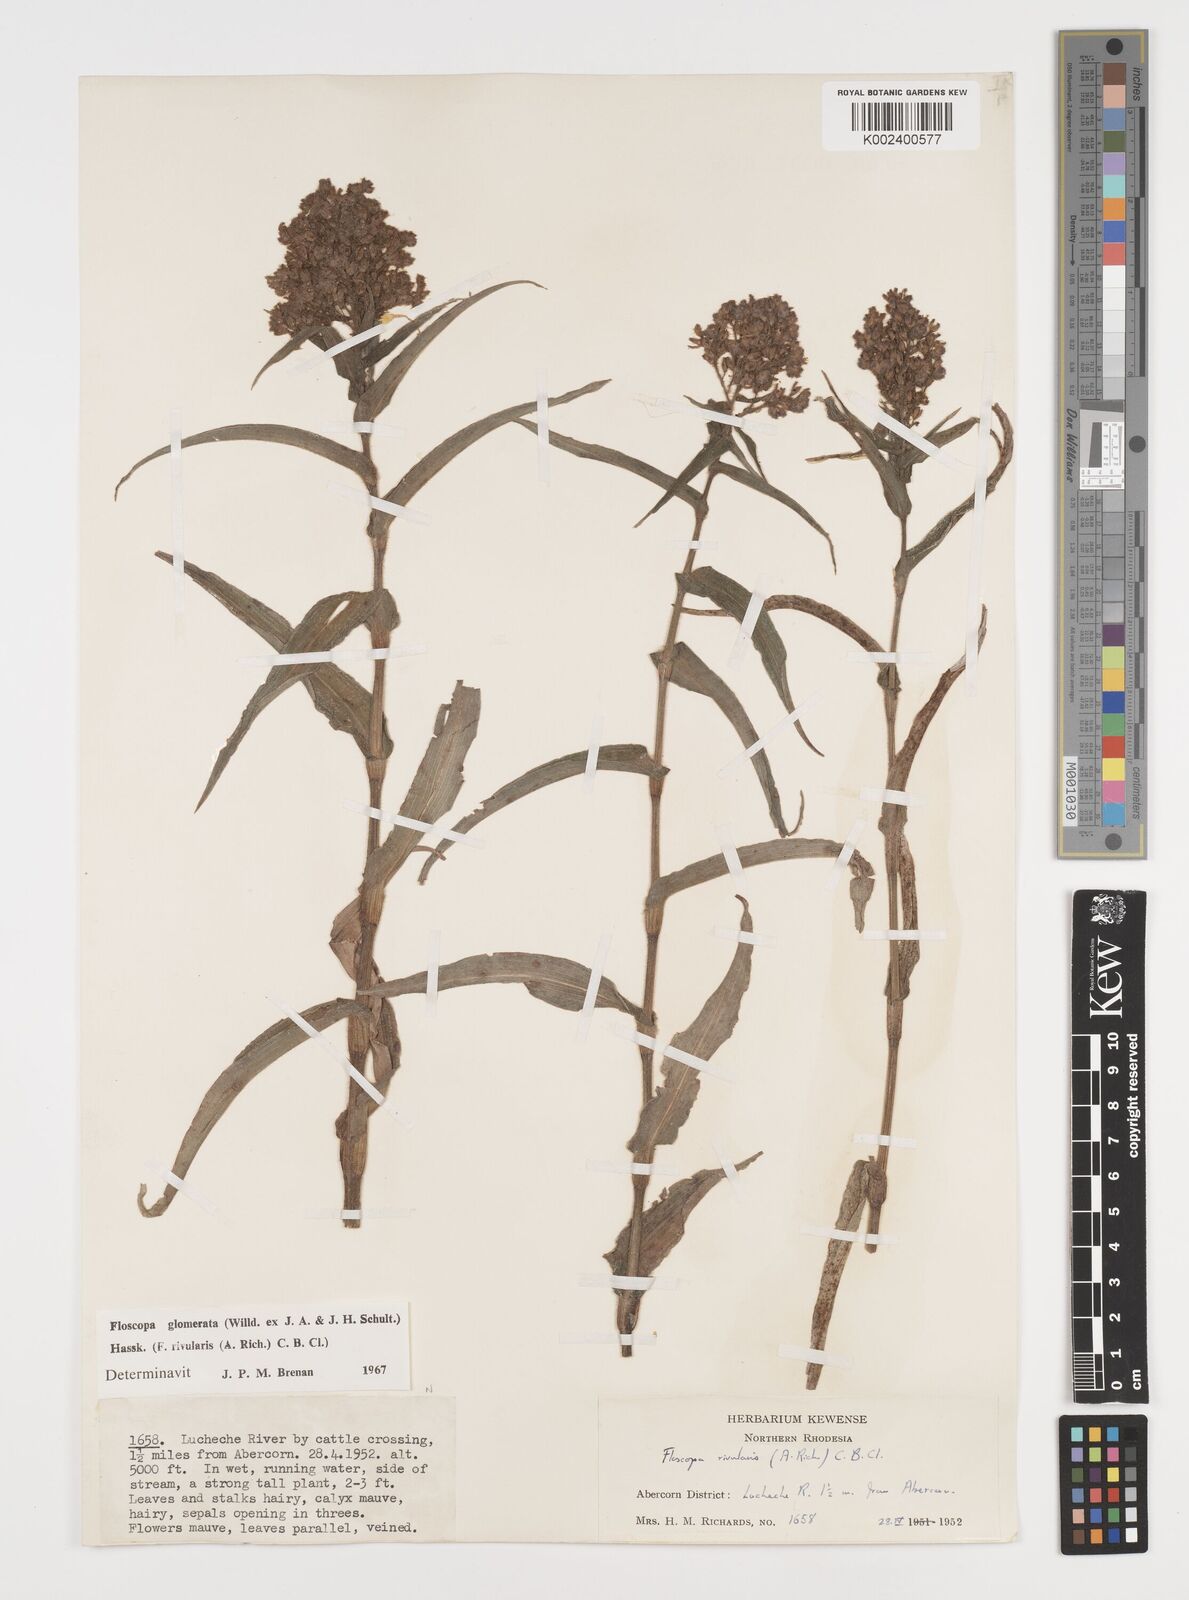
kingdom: Plantae
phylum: Tracheophyta
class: Liliopsida
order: Commelinales
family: Commelinaceae
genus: Floscopa
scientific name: Floscopa glomerata
